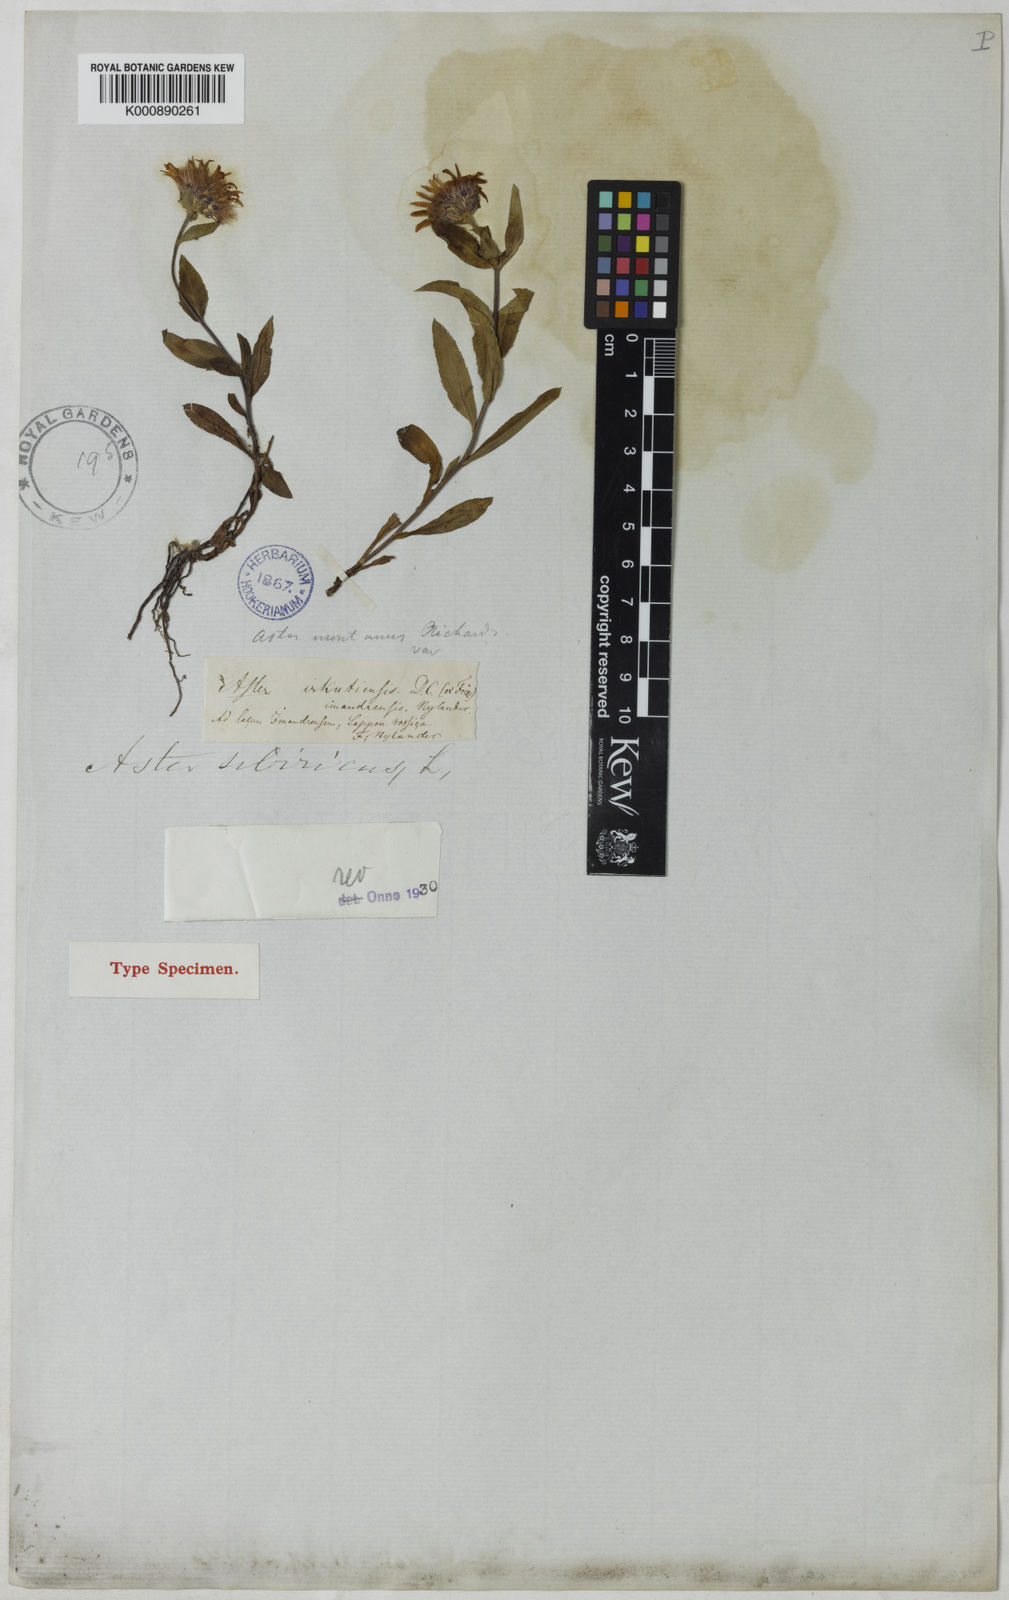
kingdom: Plantae
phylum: Tracheophyta
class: Magnoliopsida
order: Asterales
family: Asteraceae
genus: Eurybia
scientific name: Eurybia sibirica
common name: Arctic aster
